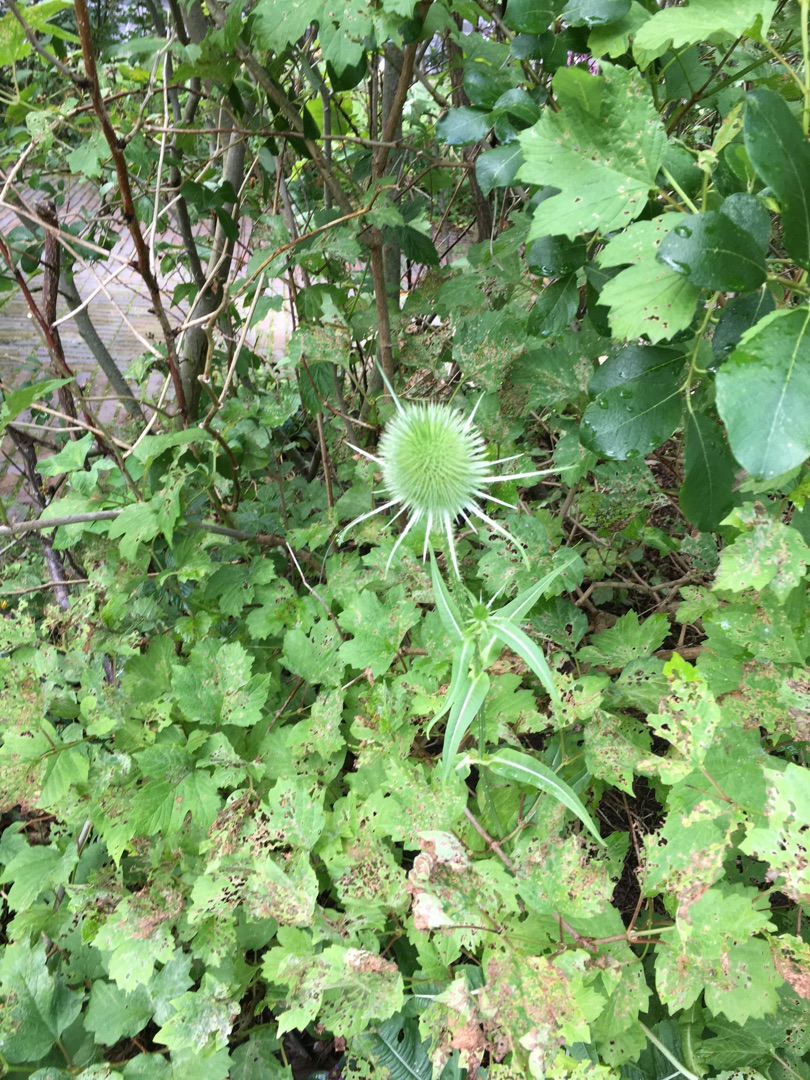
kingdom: Plantae
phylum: Tracheophyta
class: Magnoliopsida
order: Dipsacales
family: Caprifoliaceae
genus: Dipsacus
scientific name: Dipsacus fullonum
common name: Gærde-kartebolle
